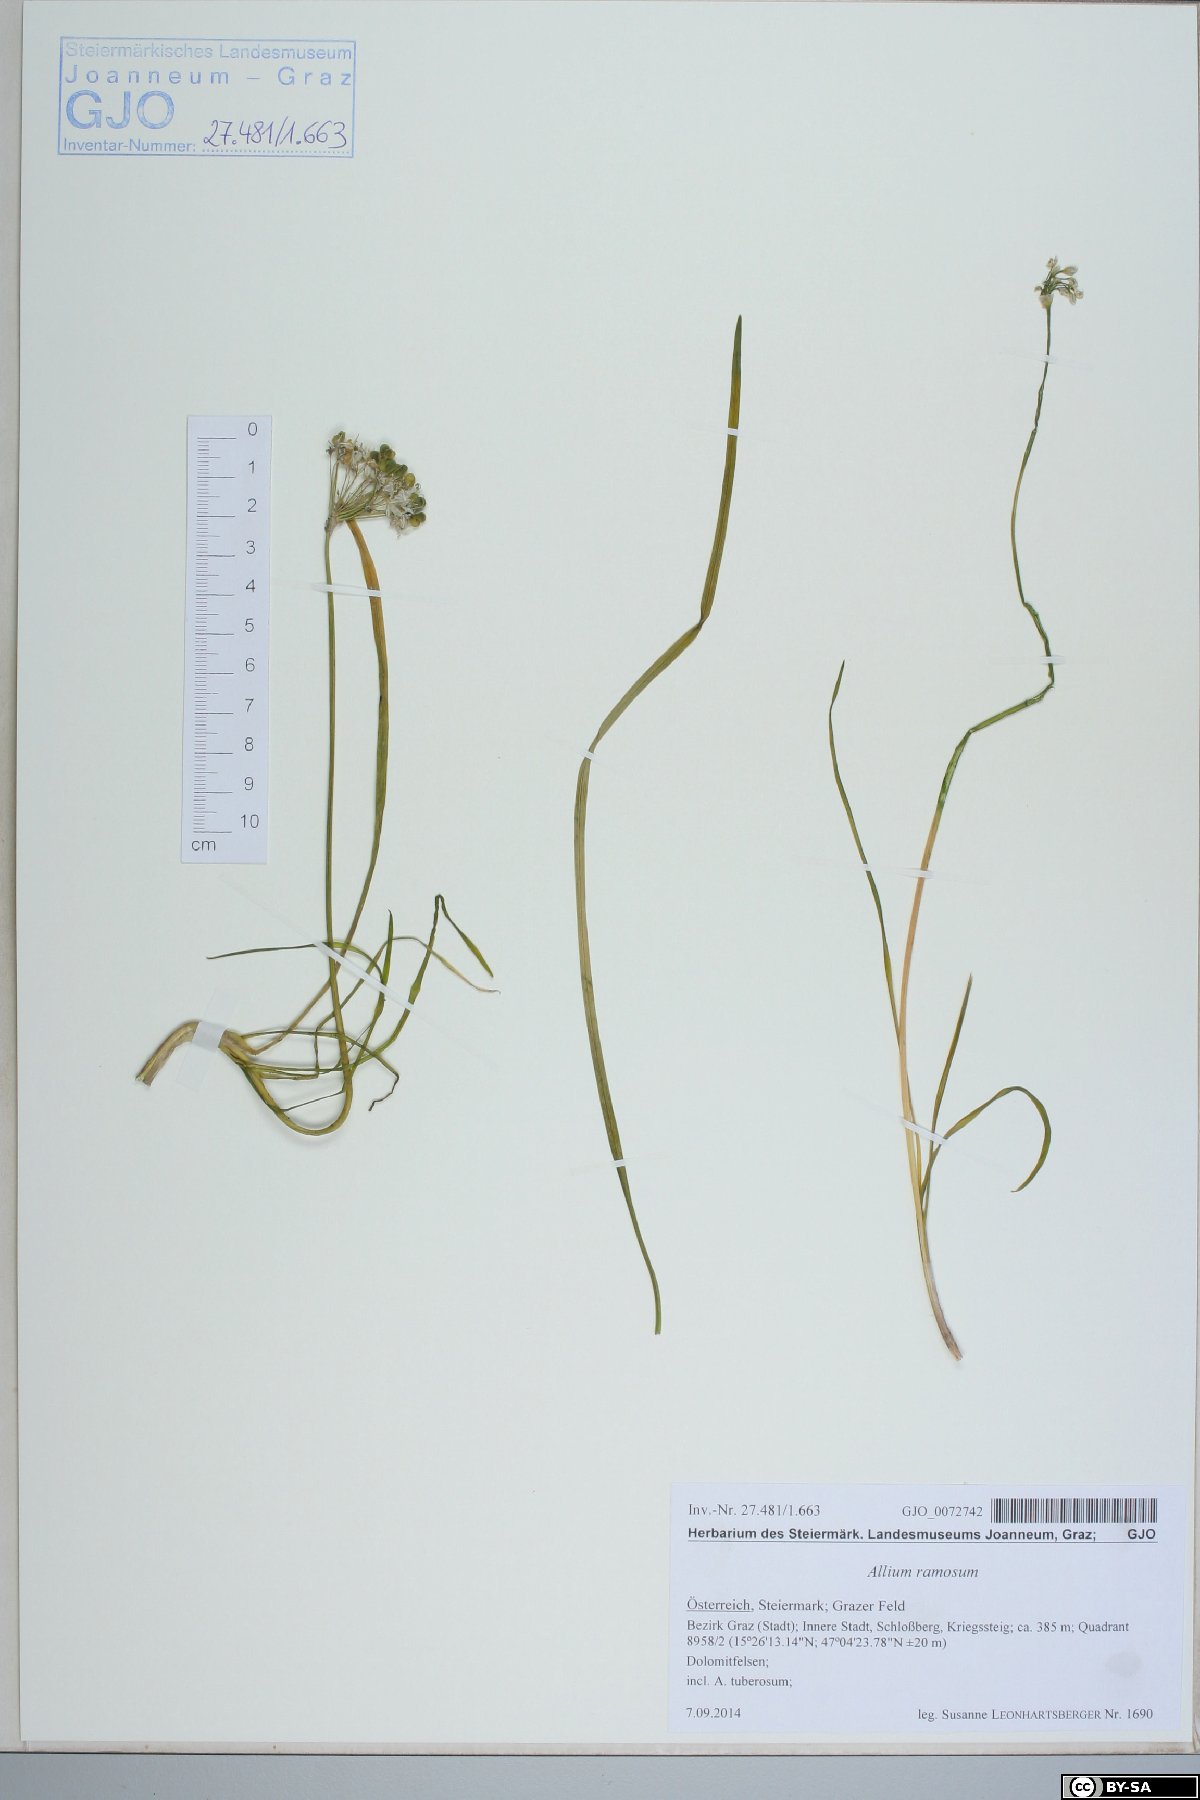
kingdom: Plantae
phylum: Tracheophyta
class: Liliopsida
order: Asparagales
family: Amaryllidaceae
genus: Allium
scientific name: Allium tuberosum
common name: Chinese chives
